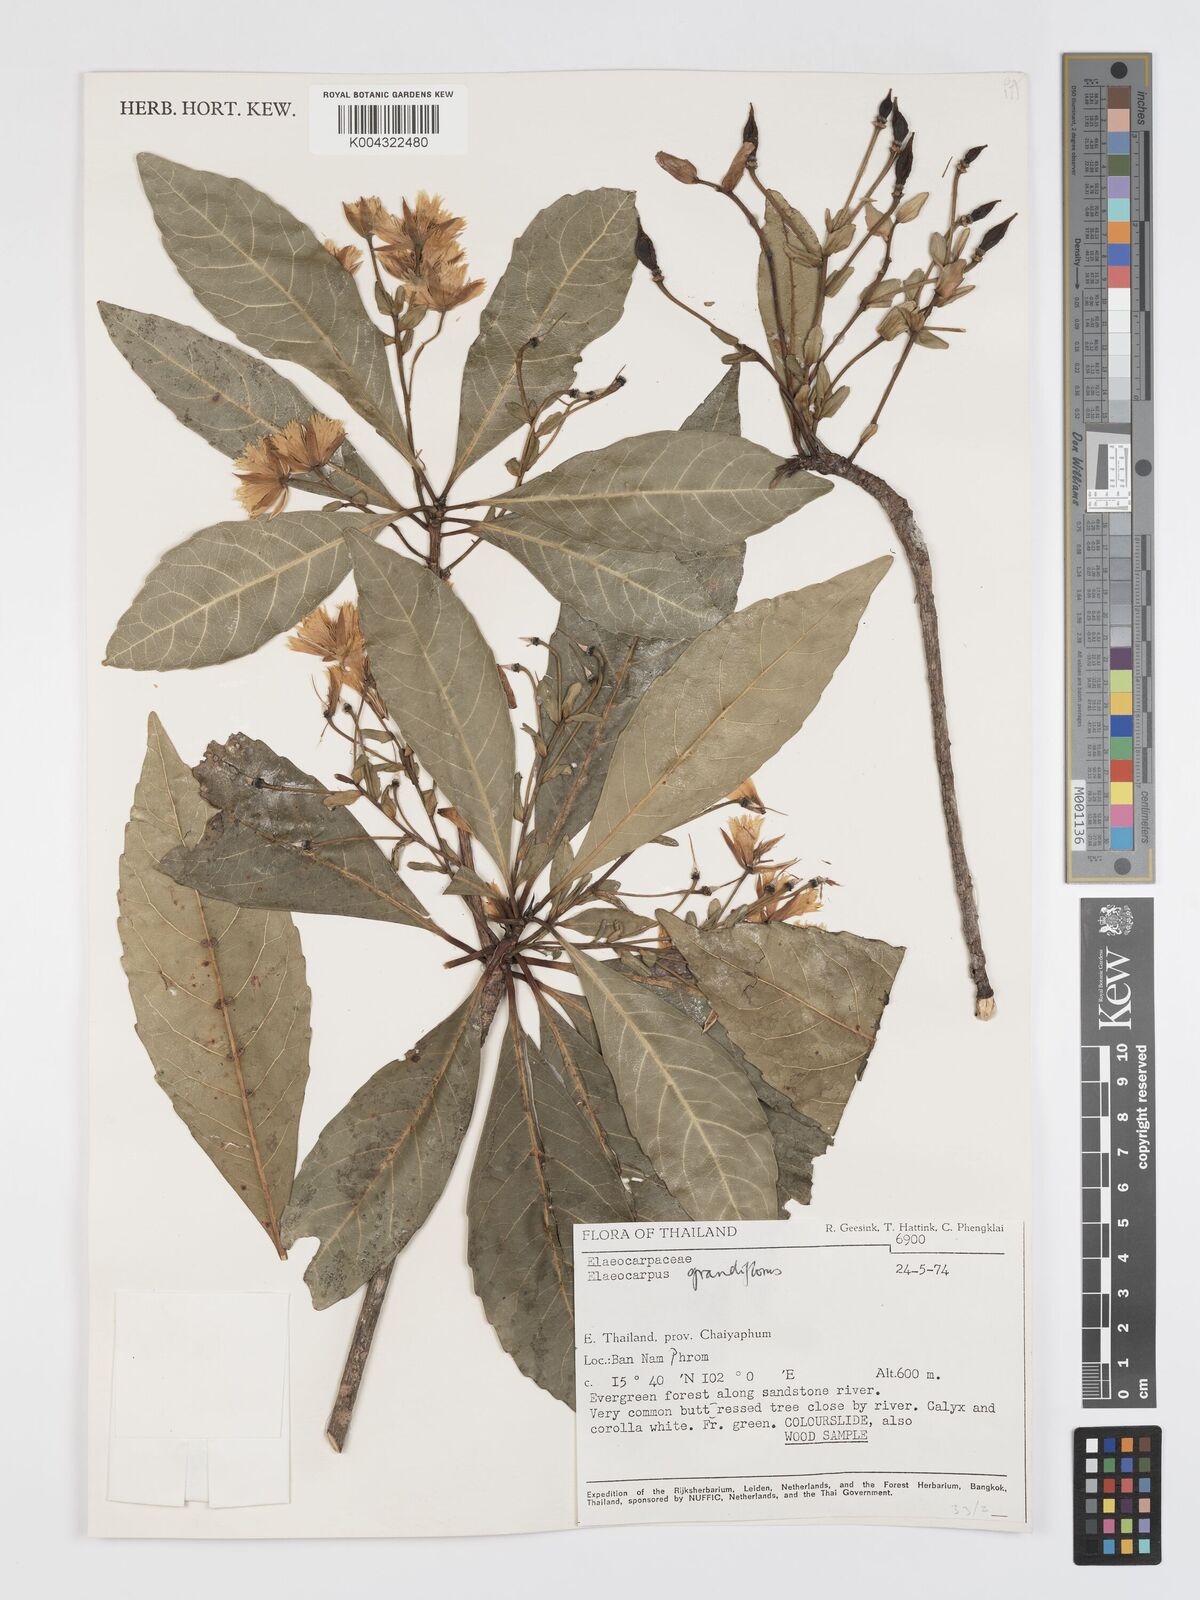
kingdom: Plantae
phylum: Tracheophyta
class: Magnoliopsida
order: Oxalidales
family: Elaeocarpaceae
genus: Elaeocarpus
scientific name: Elaeocarpus grandiflorus
